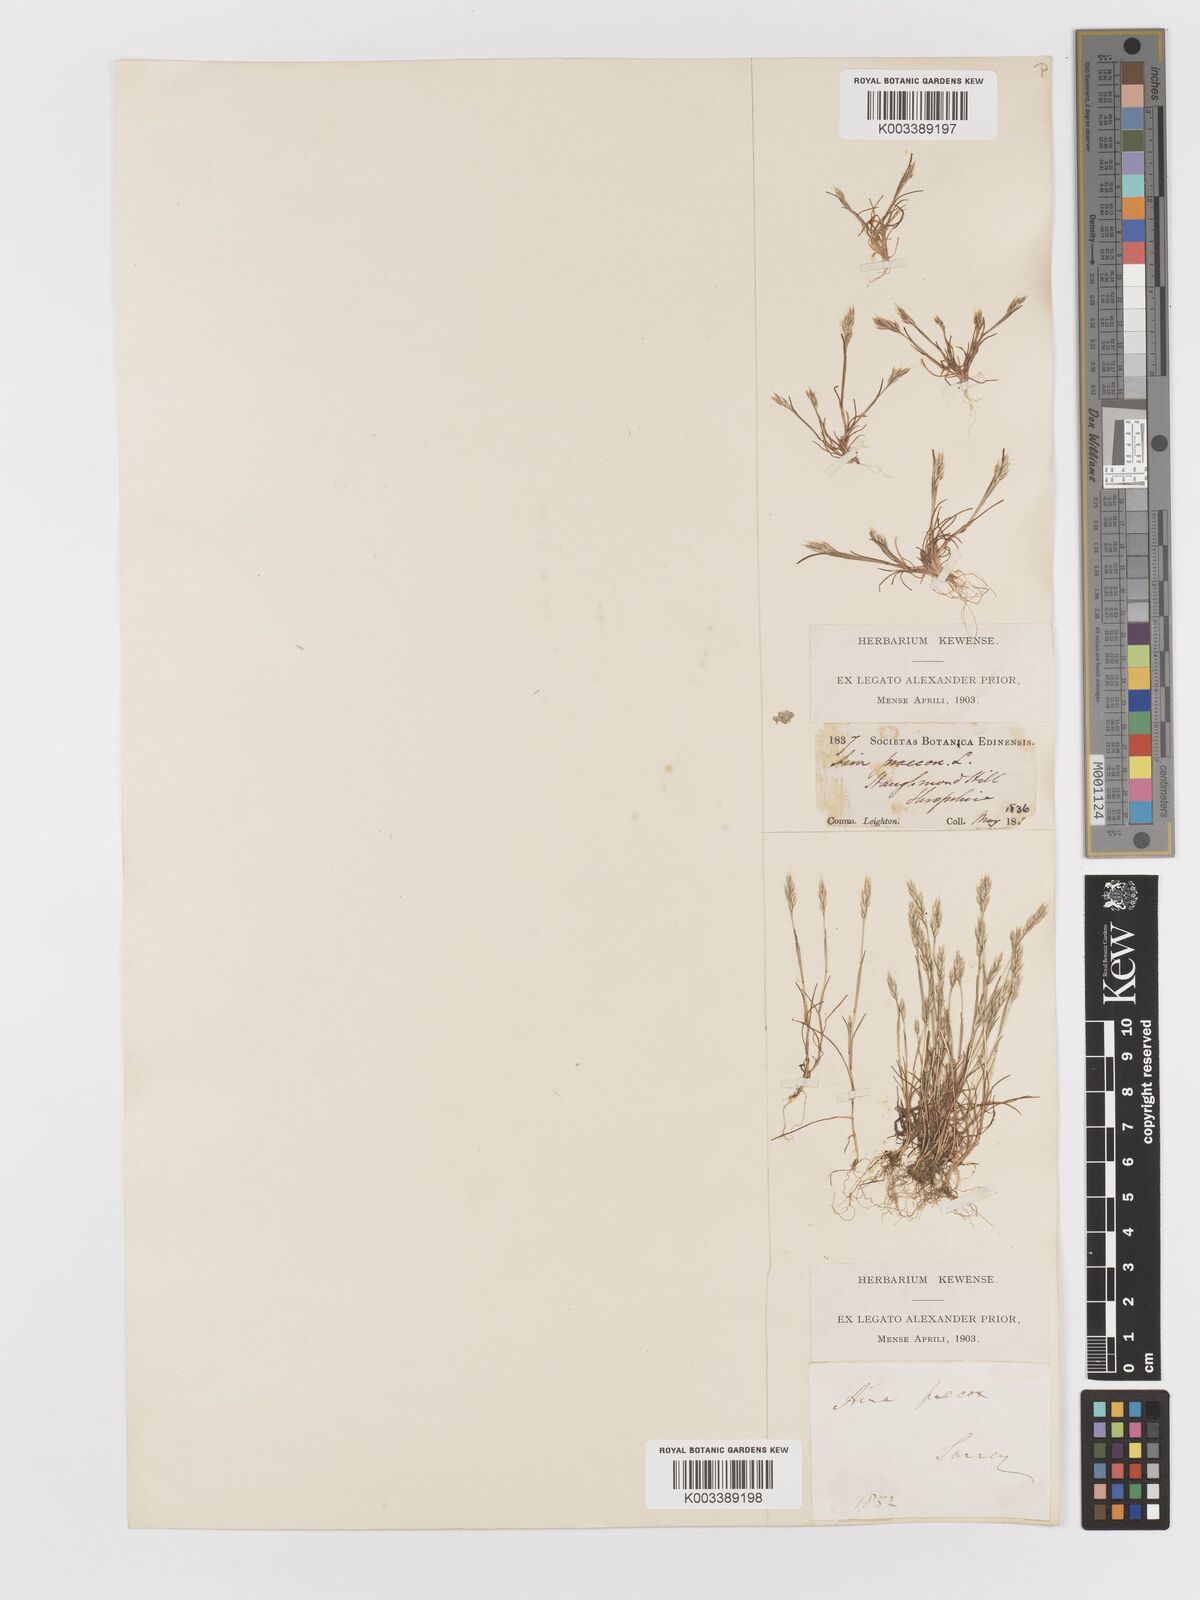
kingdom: Plantae
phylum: Tracheophyta
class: Liliopsida
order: Poales
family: Poaceae
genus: Aira
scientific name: Aira praecox
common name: Early hair-grass
